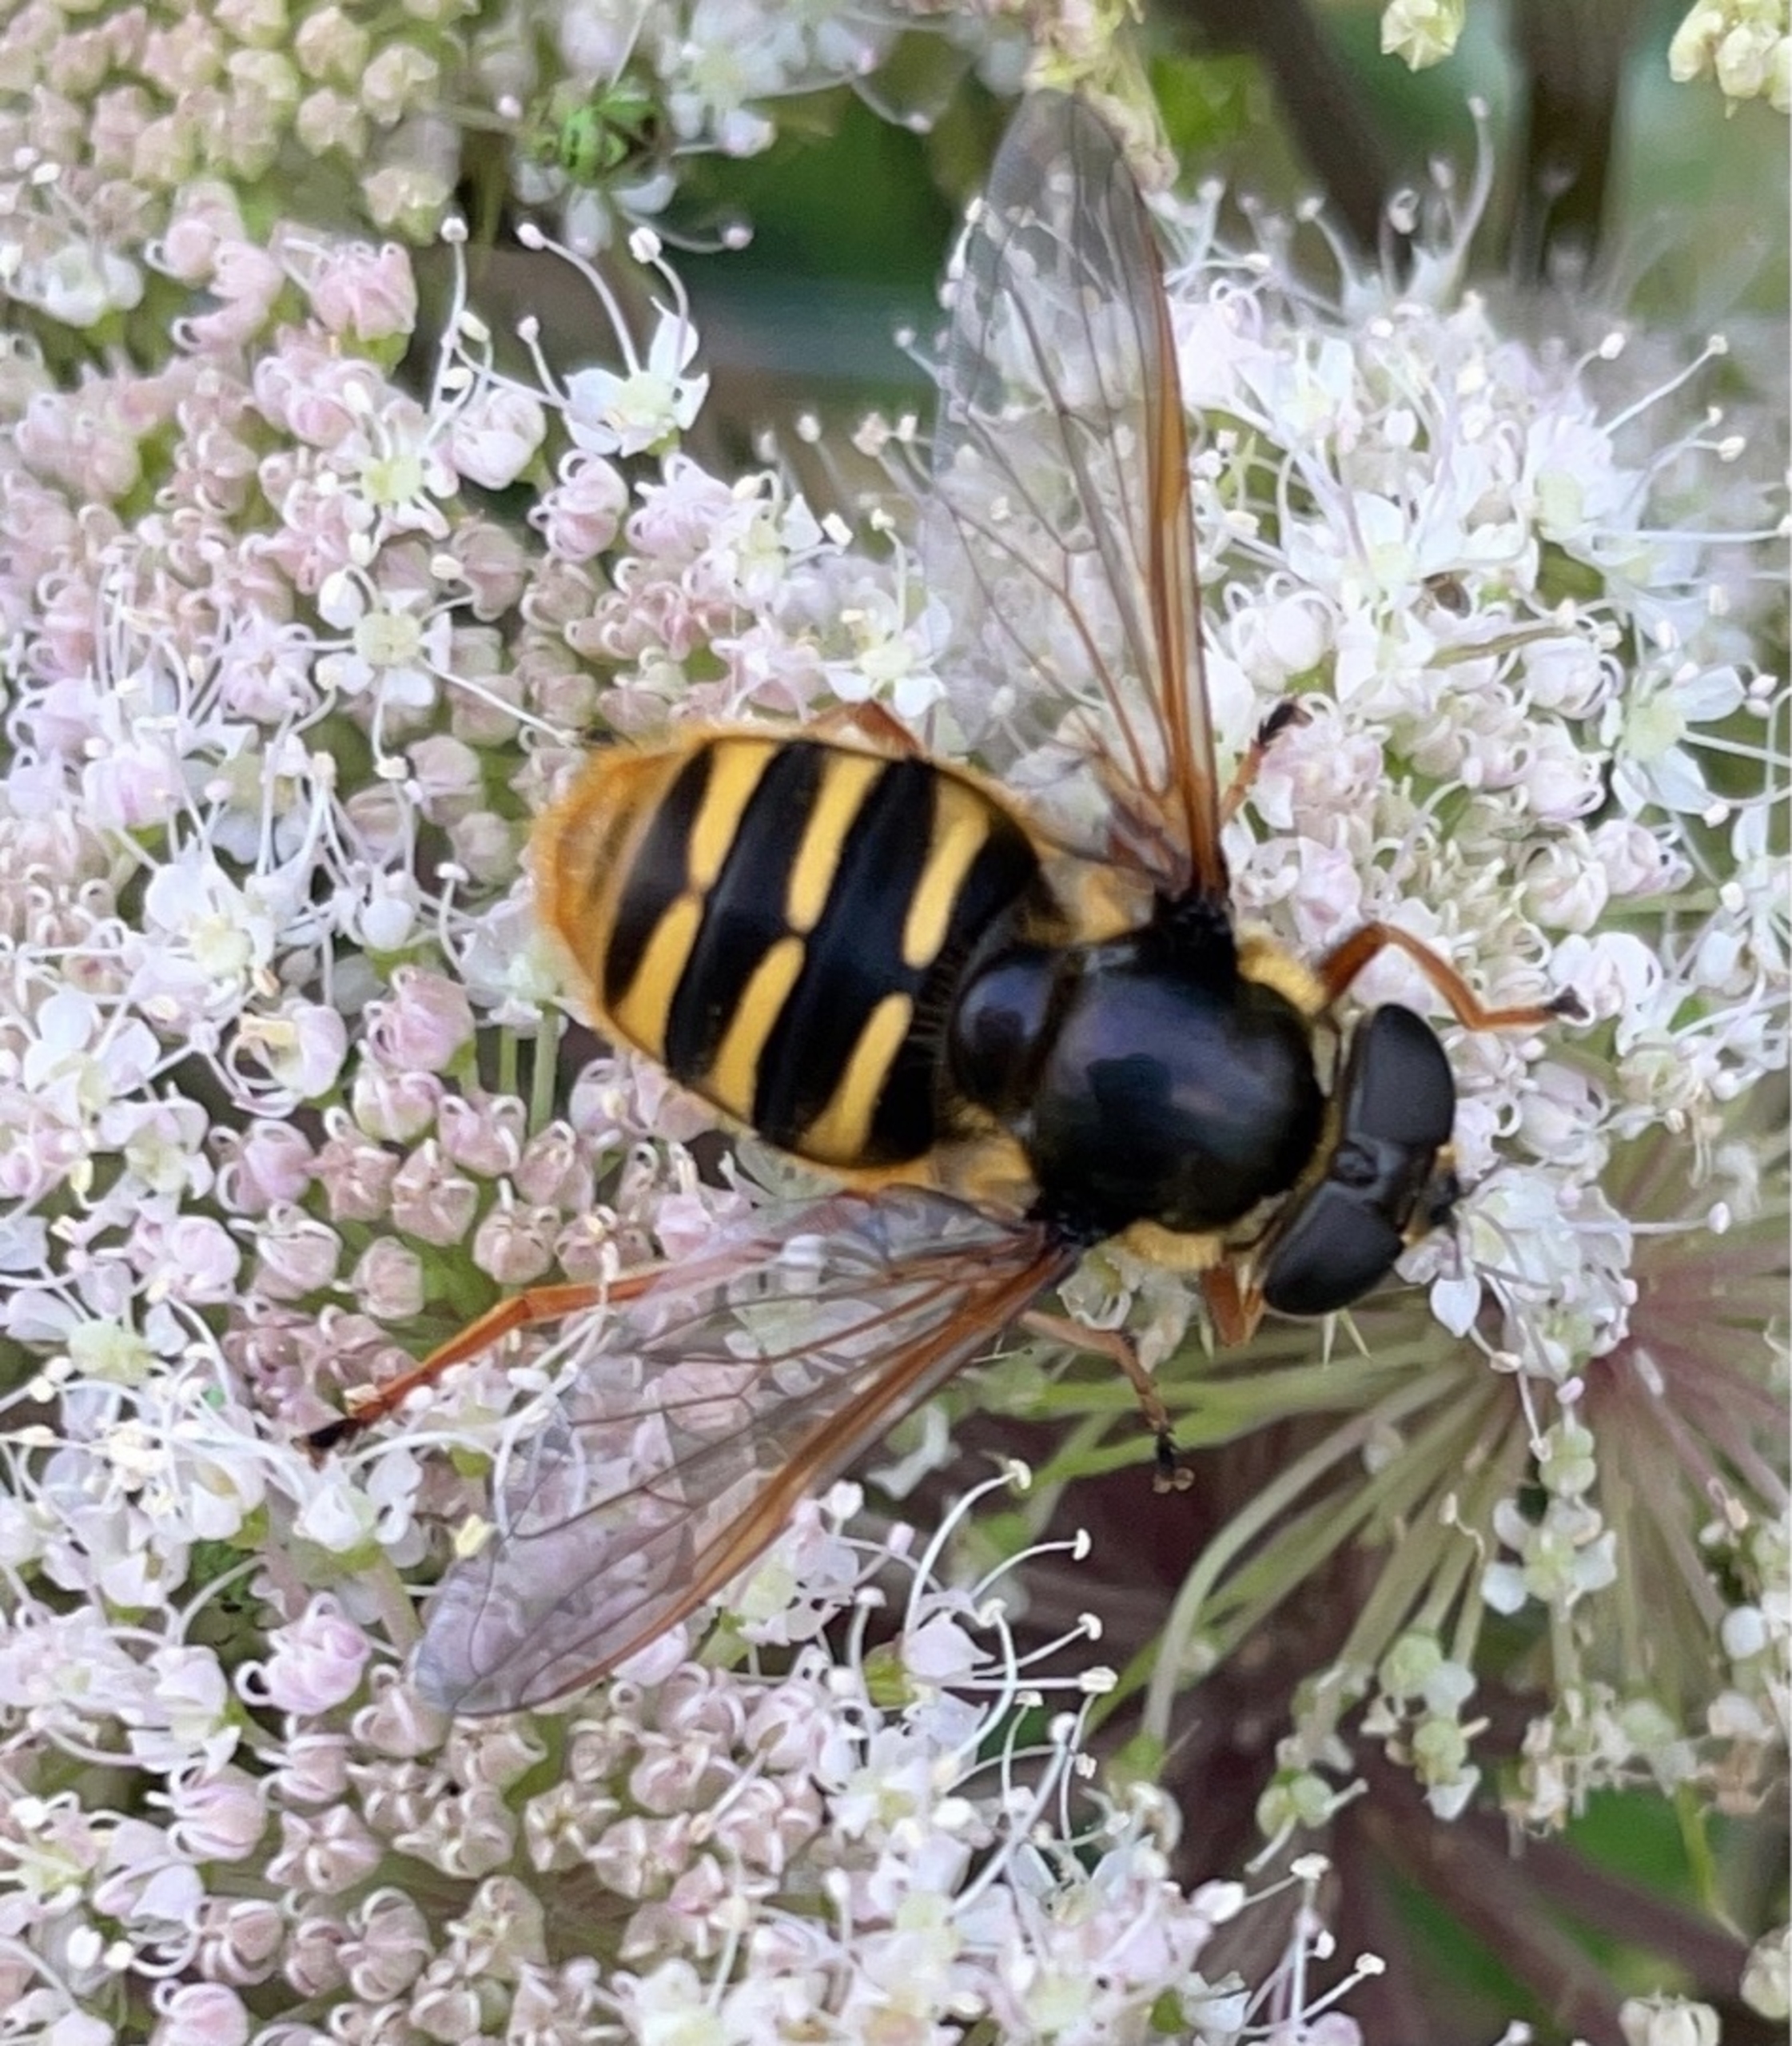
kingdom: Animalia
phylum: Arthropoda
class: Insecta
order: Diptera
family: Syrphidae
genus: Sericomyia
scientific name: Sericomyia silentis
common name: Tørve-silkesvirreflue
